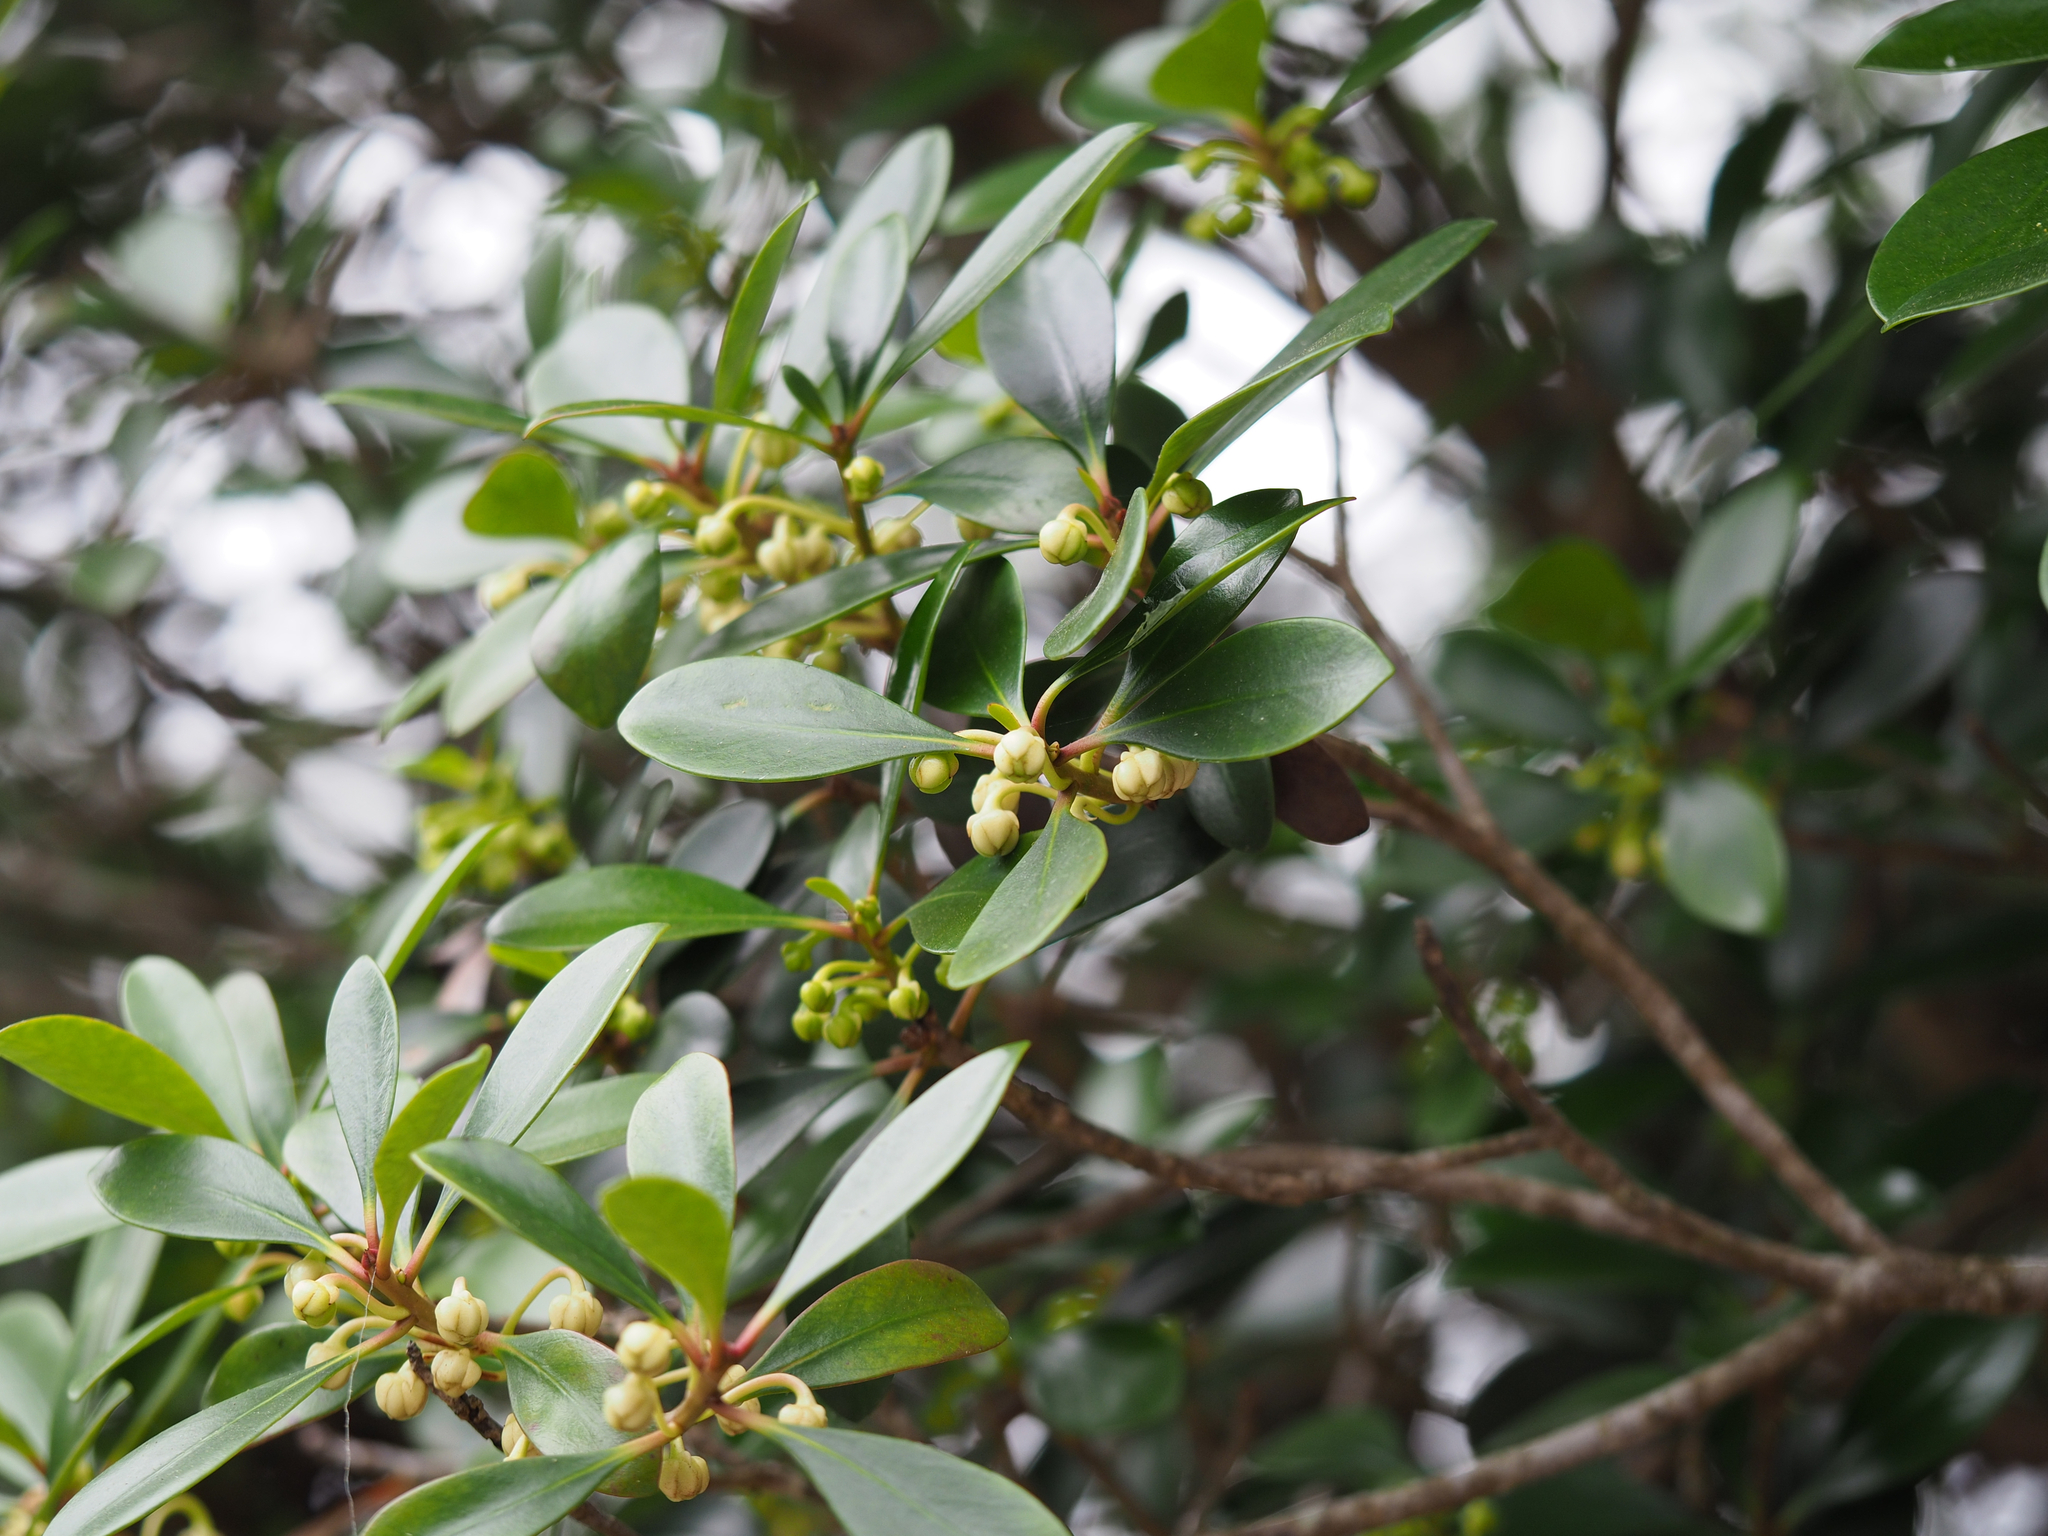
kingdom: Plantae
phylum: Tracheophyta
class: Magnoliopsida
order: Ericales
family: Pentaphylacaceae
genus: Ternstroemia
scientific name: Ternstroemia gymnanthera
